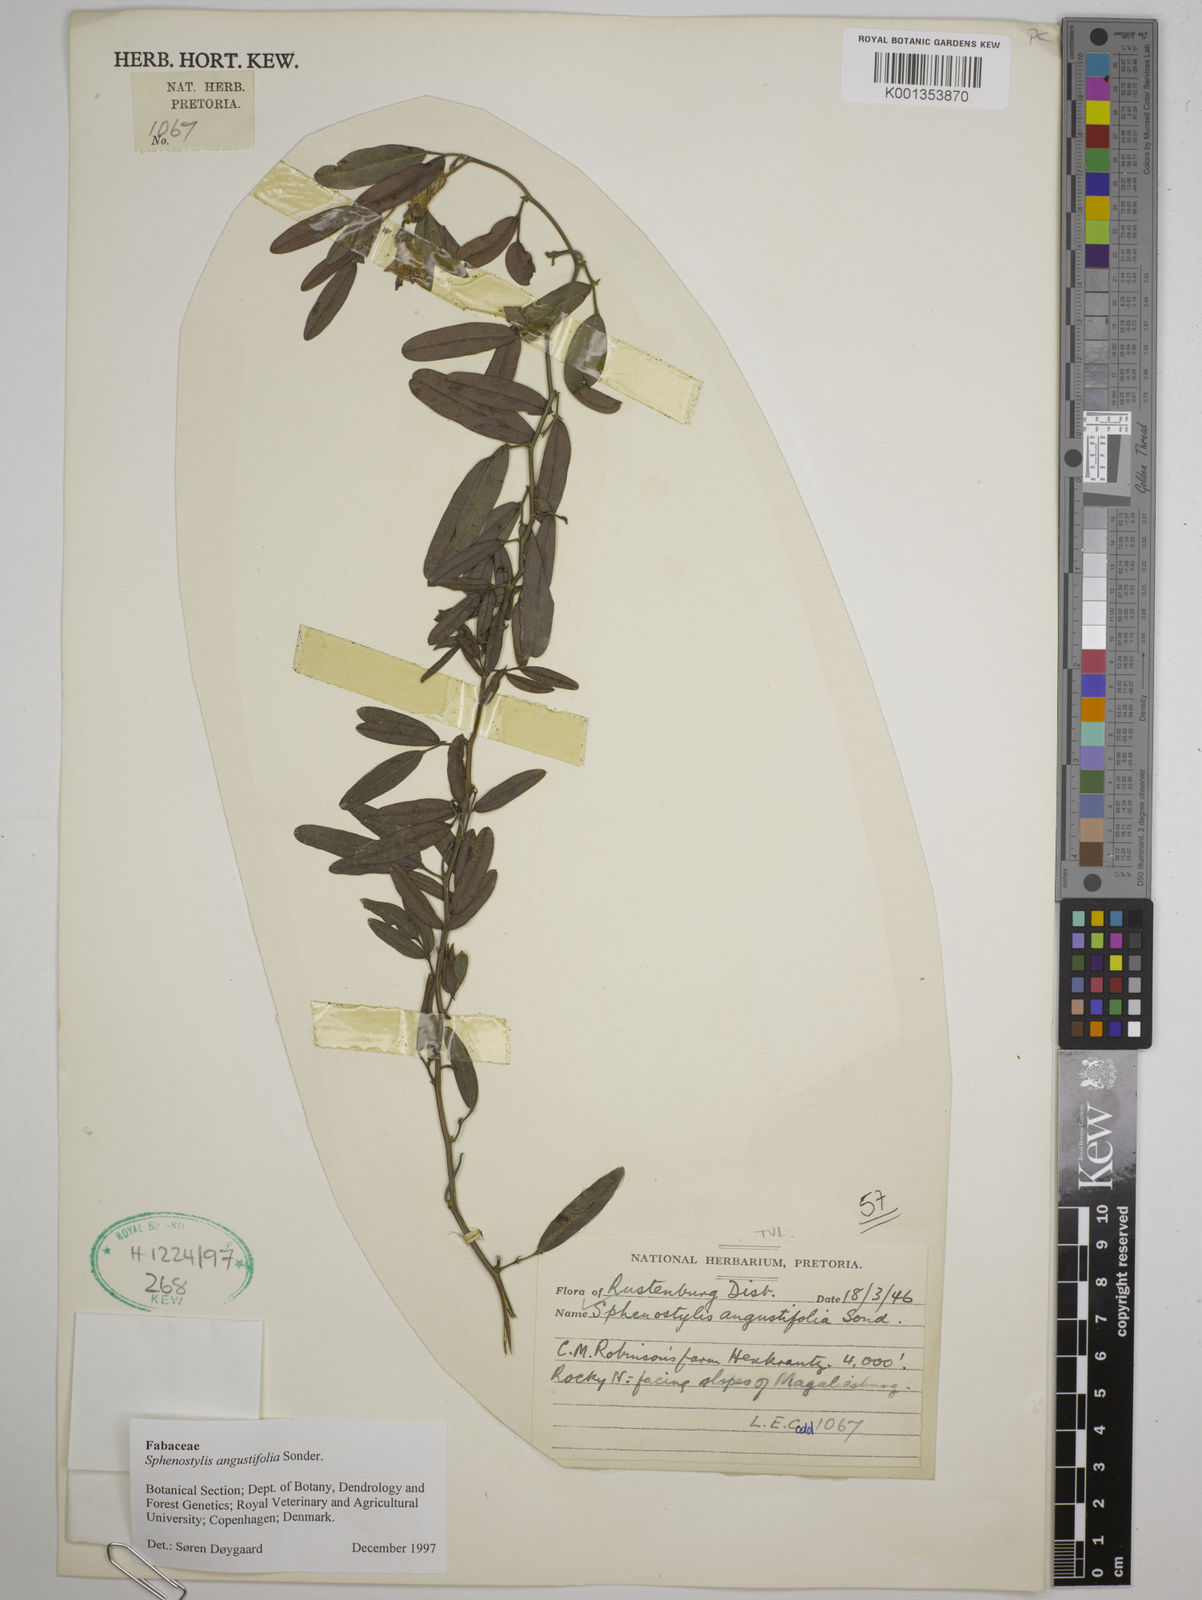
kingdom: Plantae
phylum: Tracheophyta
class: Magnoliopsida
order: Fabales
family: Fabaceae
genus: Sphenostylis
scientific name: Sphenostylis angustifolia
